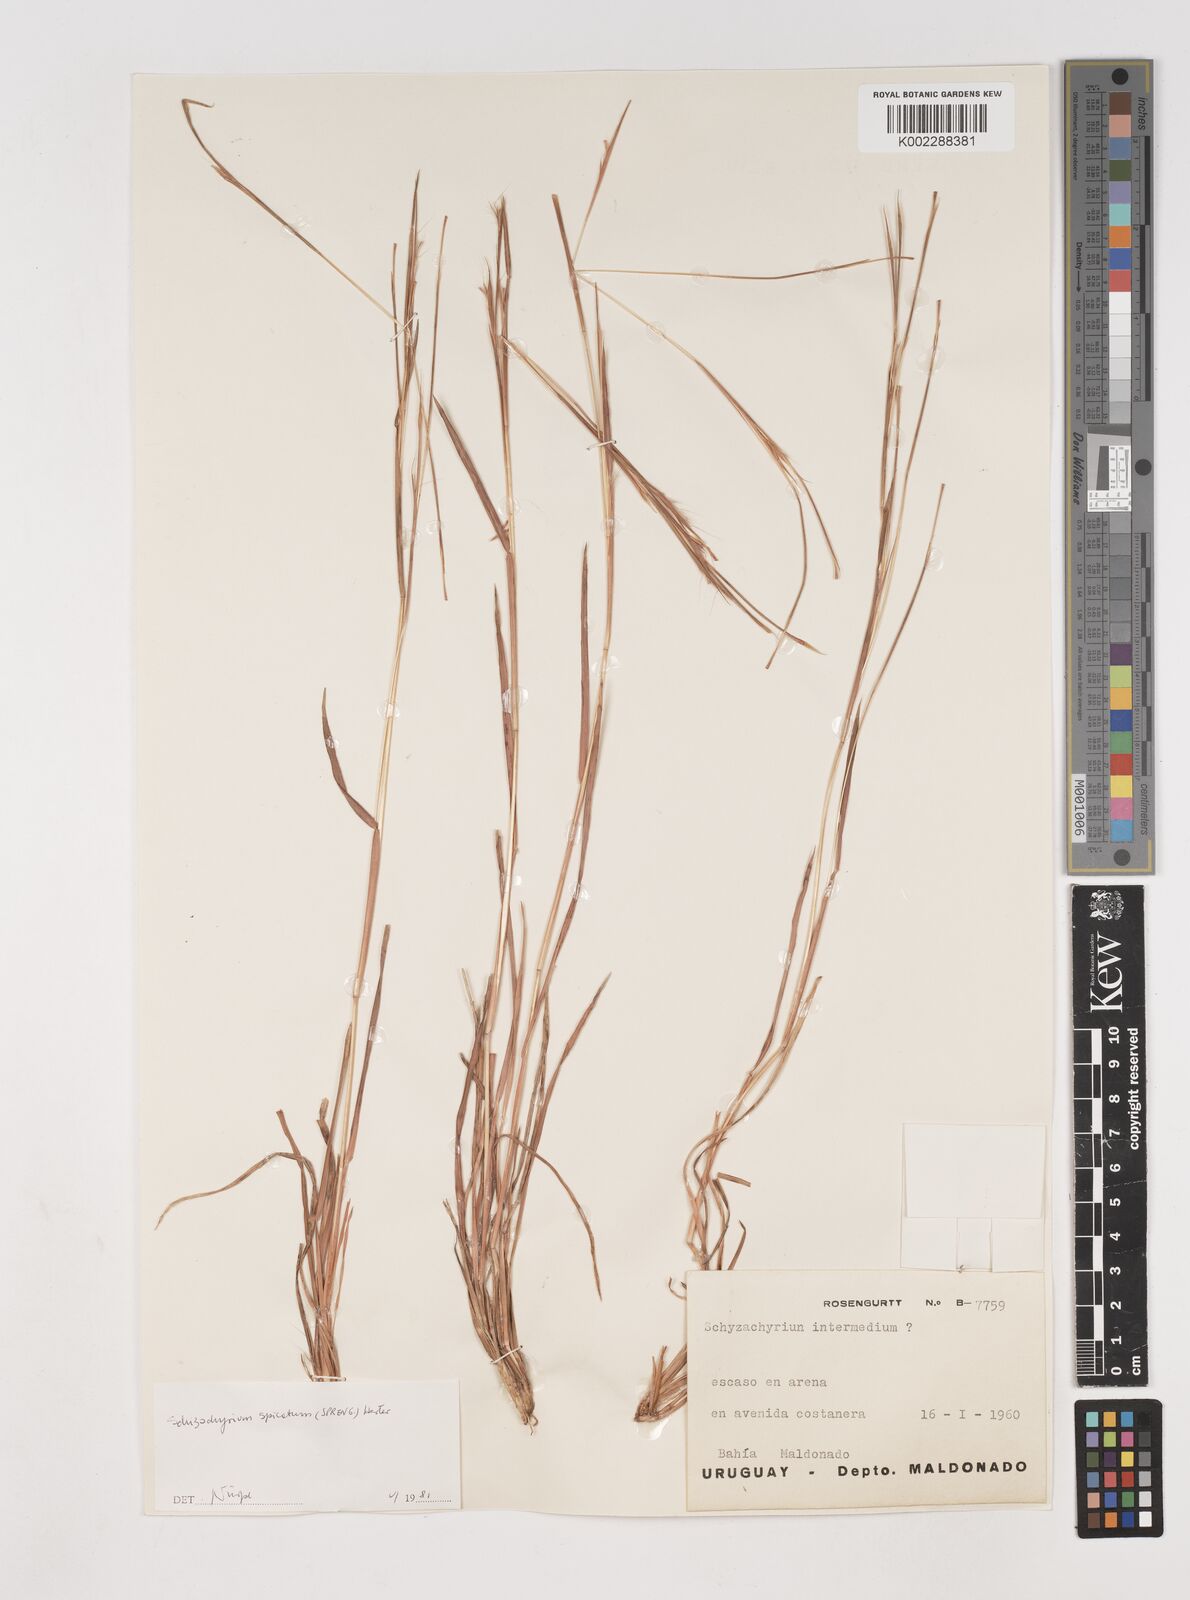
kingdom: Plantae
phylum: Tracheophyta
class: Liliopsida
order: Poales
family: Poaceae
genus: Schizachyrium
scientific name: Schizachyrium spicatum
